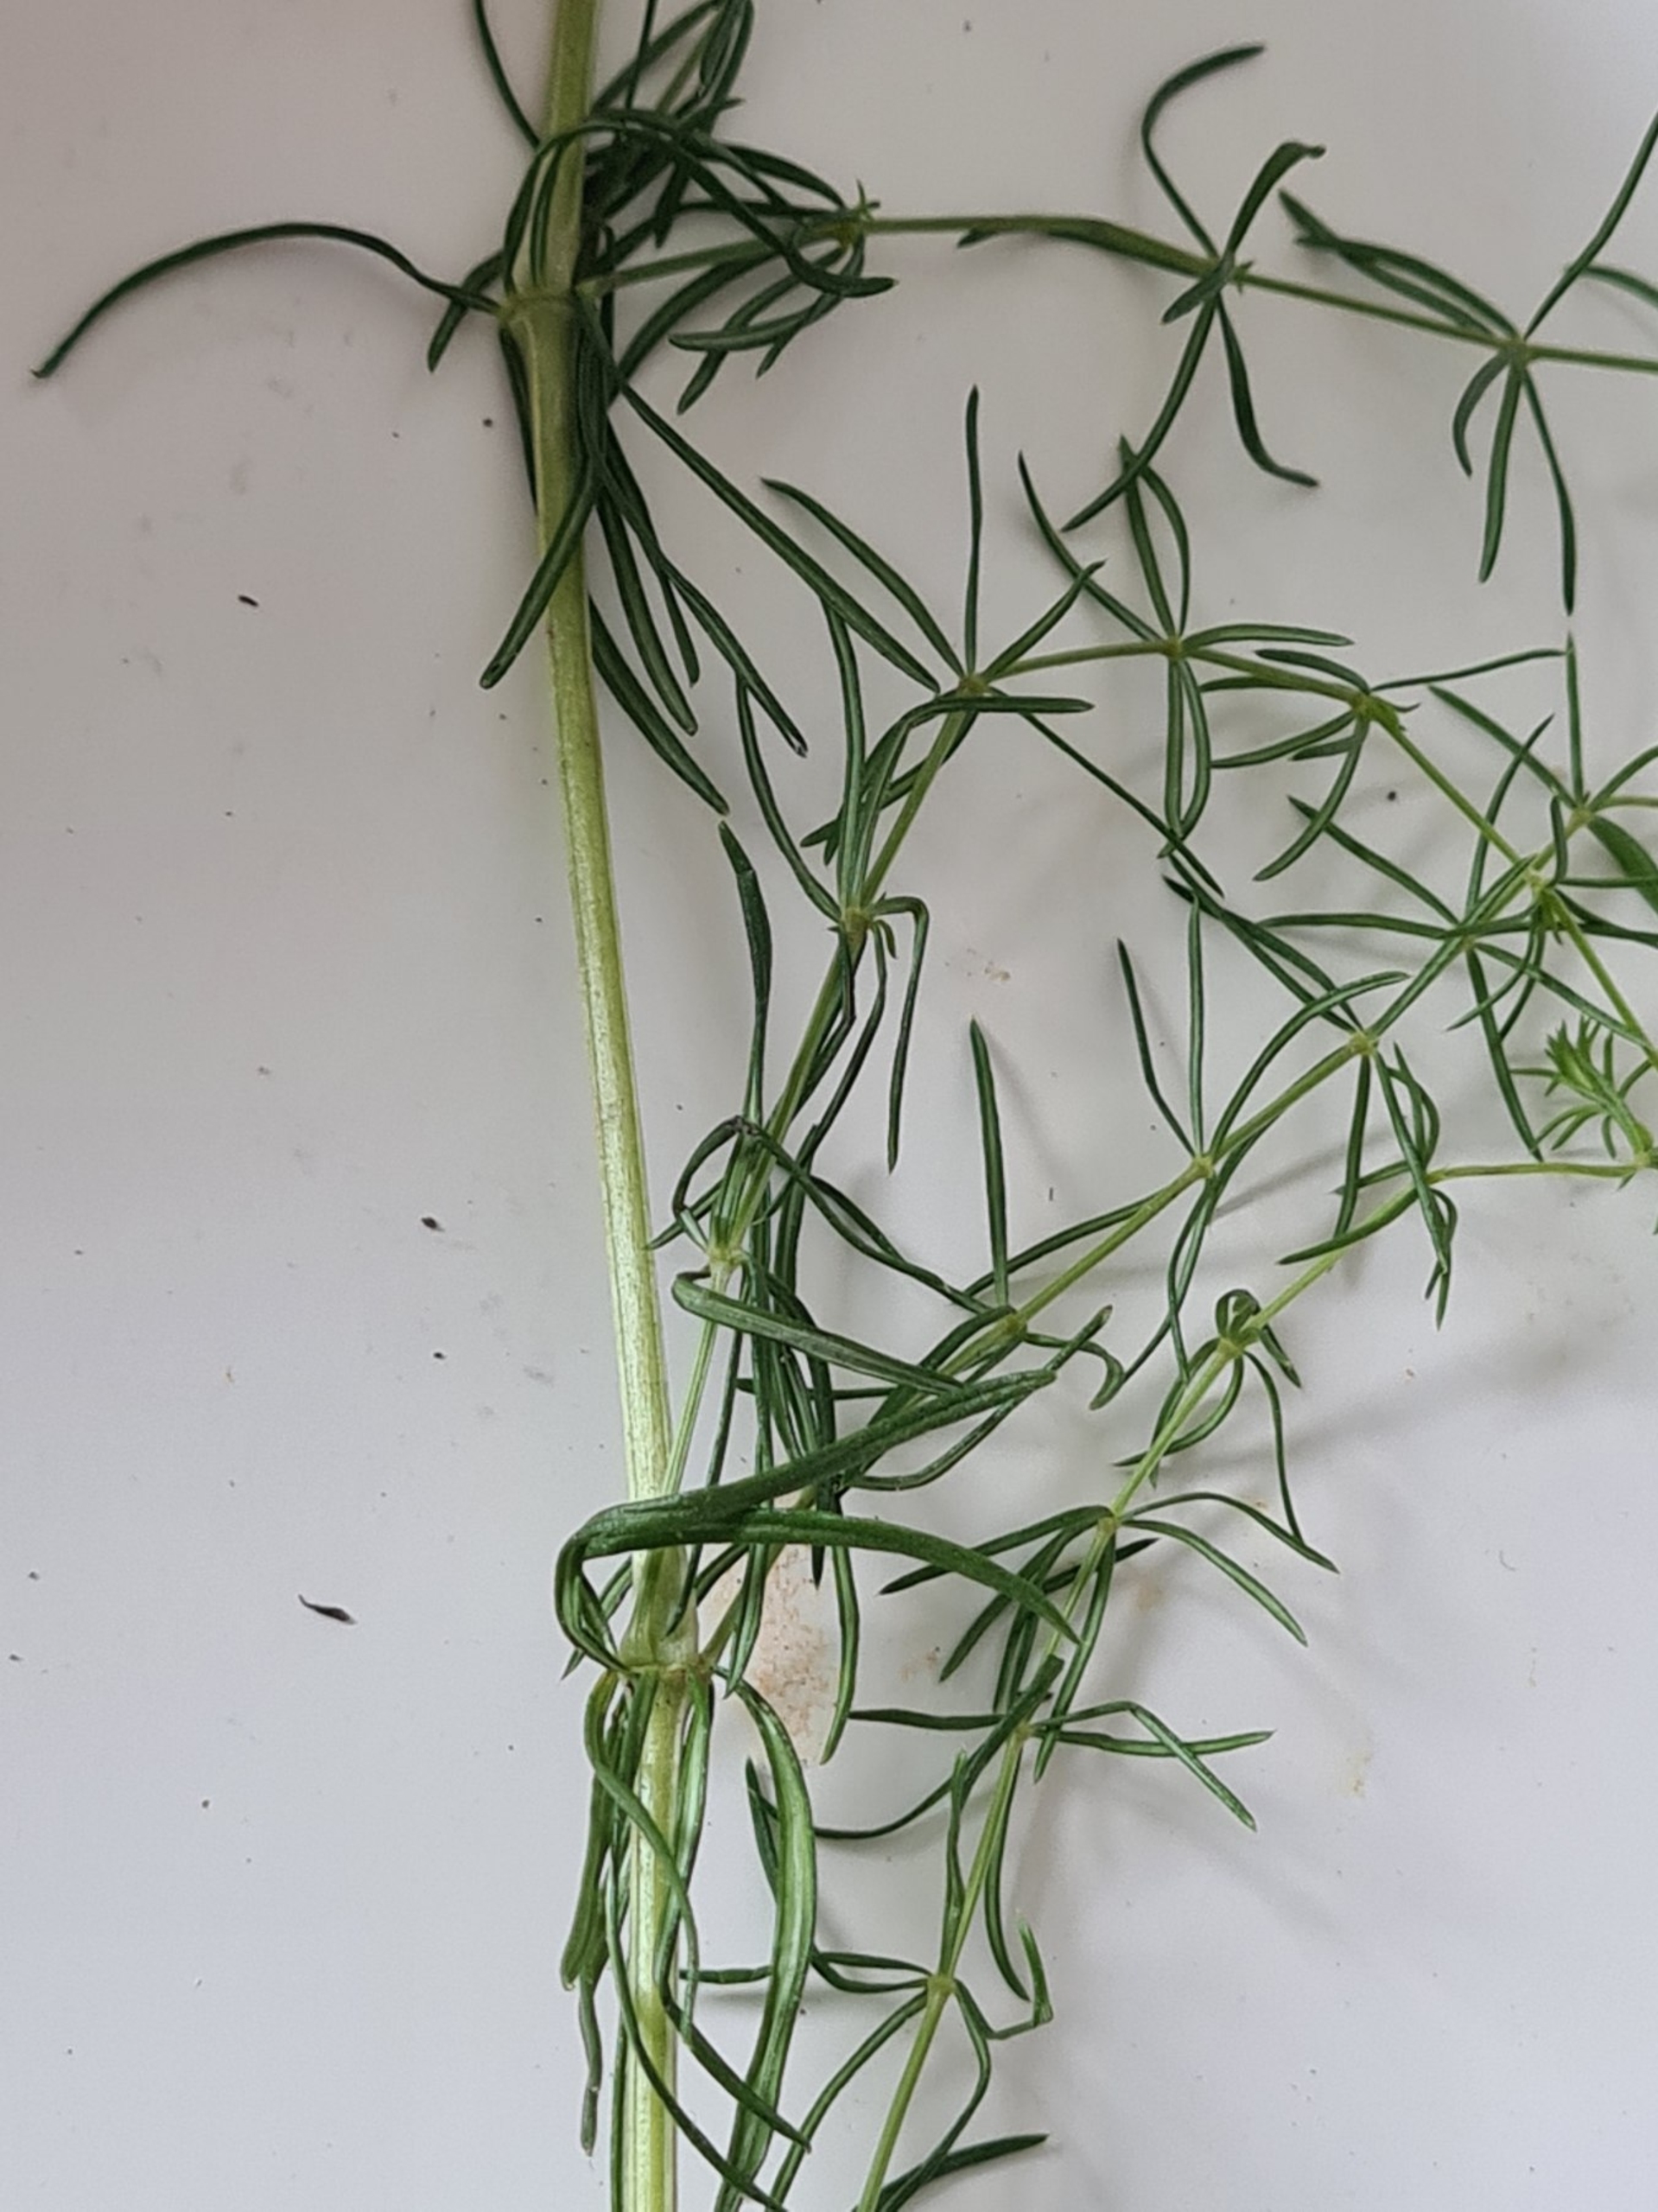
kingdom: Plantae
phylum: Tracheophyta
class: Magnoliopsida
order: Gentianales
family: Rubiaceae
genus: Galium
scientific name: Galium verum
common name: Gul snerre
